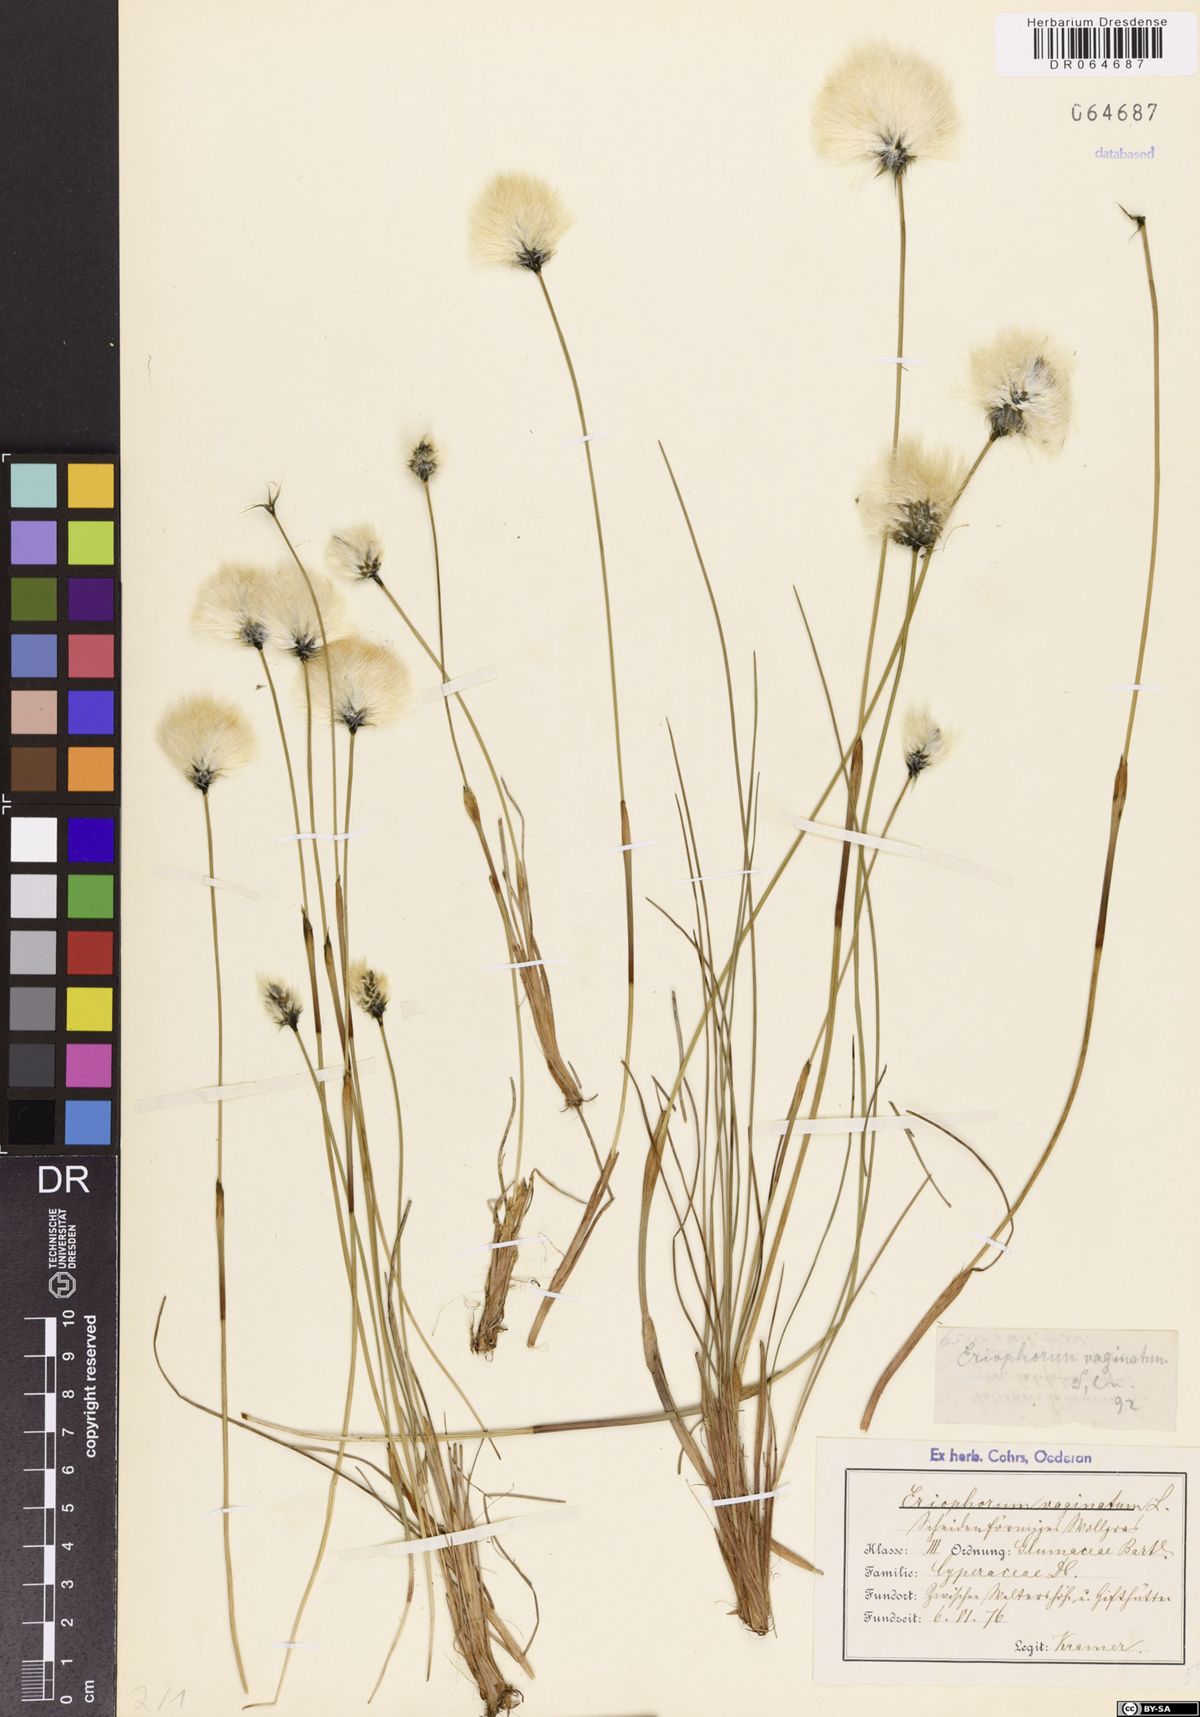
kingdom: Plantae
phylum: Tracheophyta
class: Liliopsida
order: Poales
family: Cyperaceae
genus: Eriophorum
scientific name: Eriophorum vaginatum
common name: Hare's-tail cottongrass
